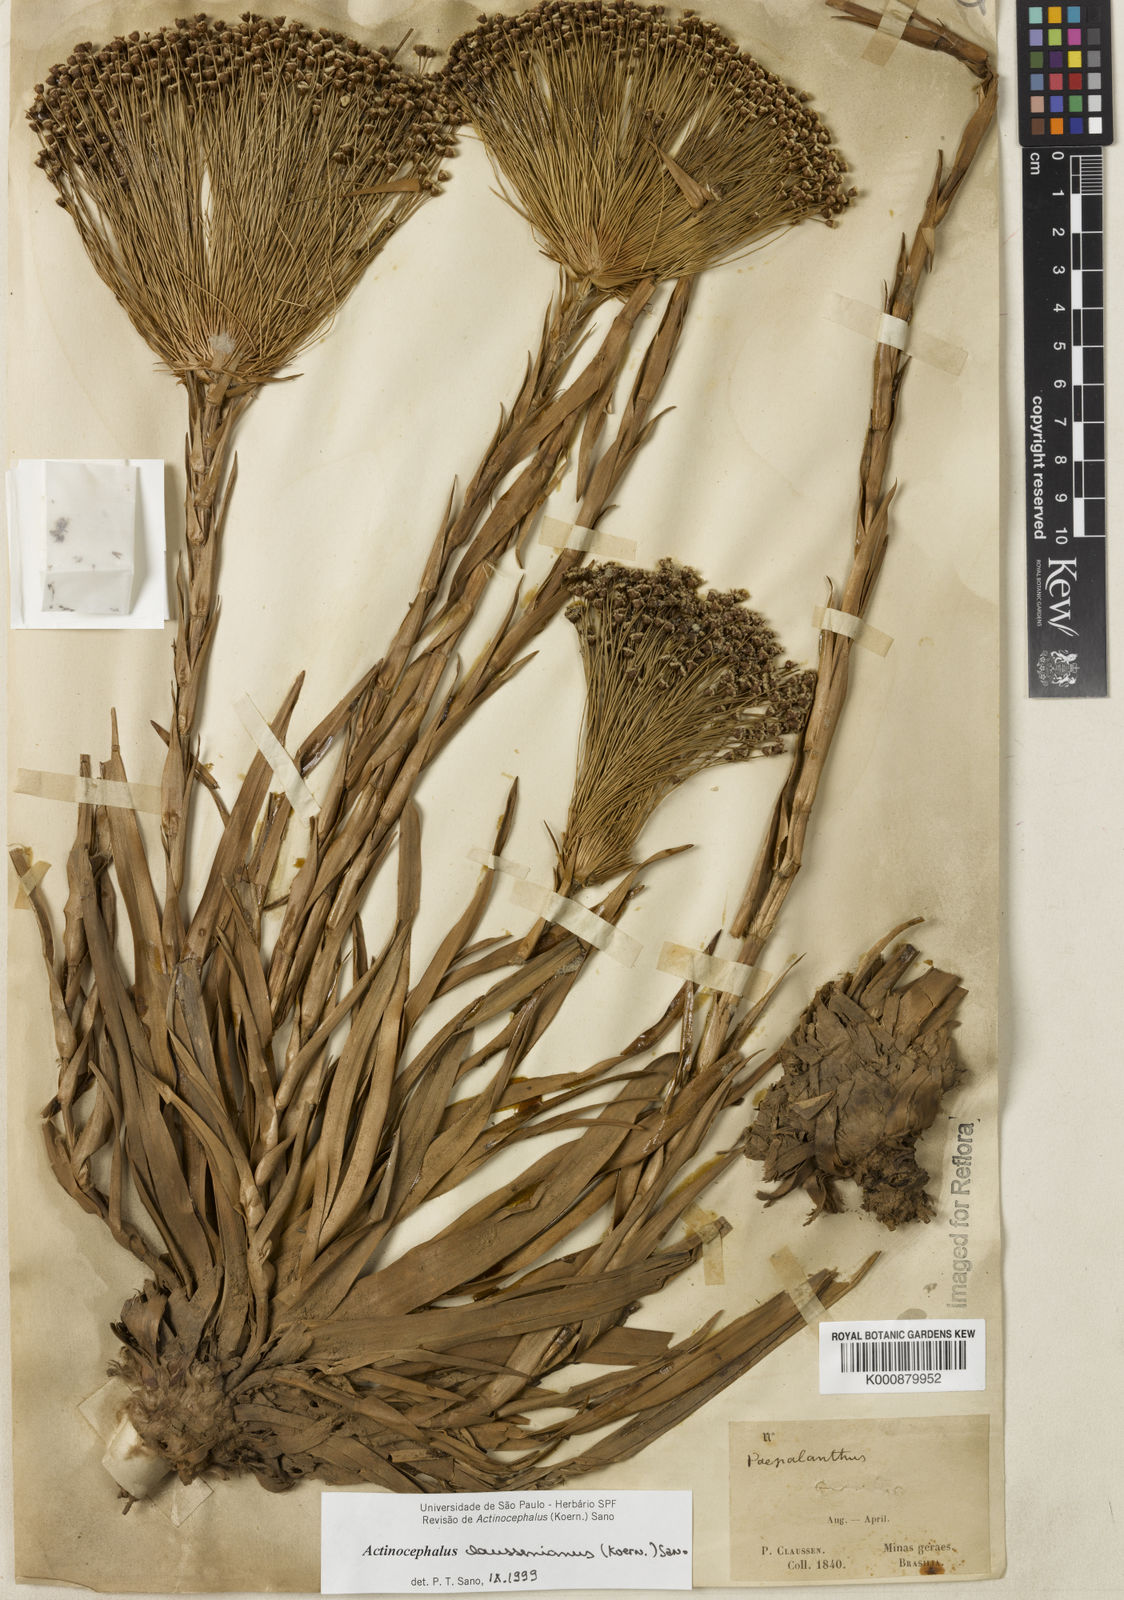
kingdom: Plantae
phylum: Tracheophyta
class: Liliopsida
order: Poales
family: Eriocaulaceae
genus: Paepalanthus
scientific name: Paepalanthus
